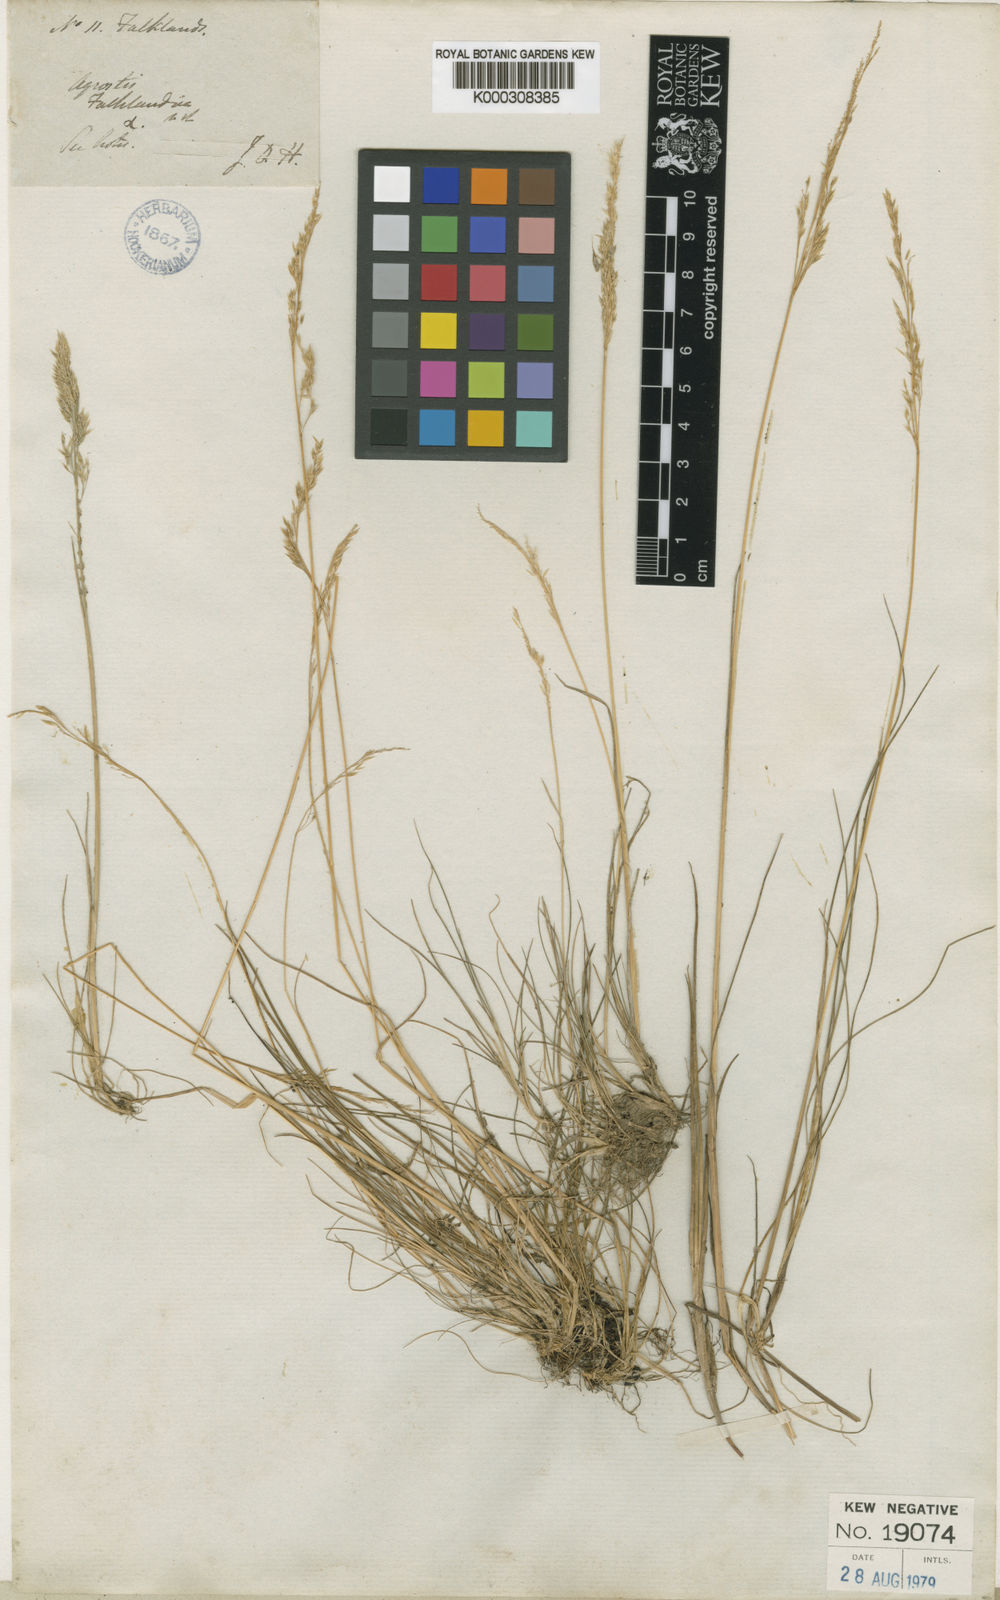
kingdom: Plantae
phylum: Tracheophyta
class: Liliopsida
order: Poales
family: Poaceae
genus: Agrostis
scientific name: Agrostis meyenii
